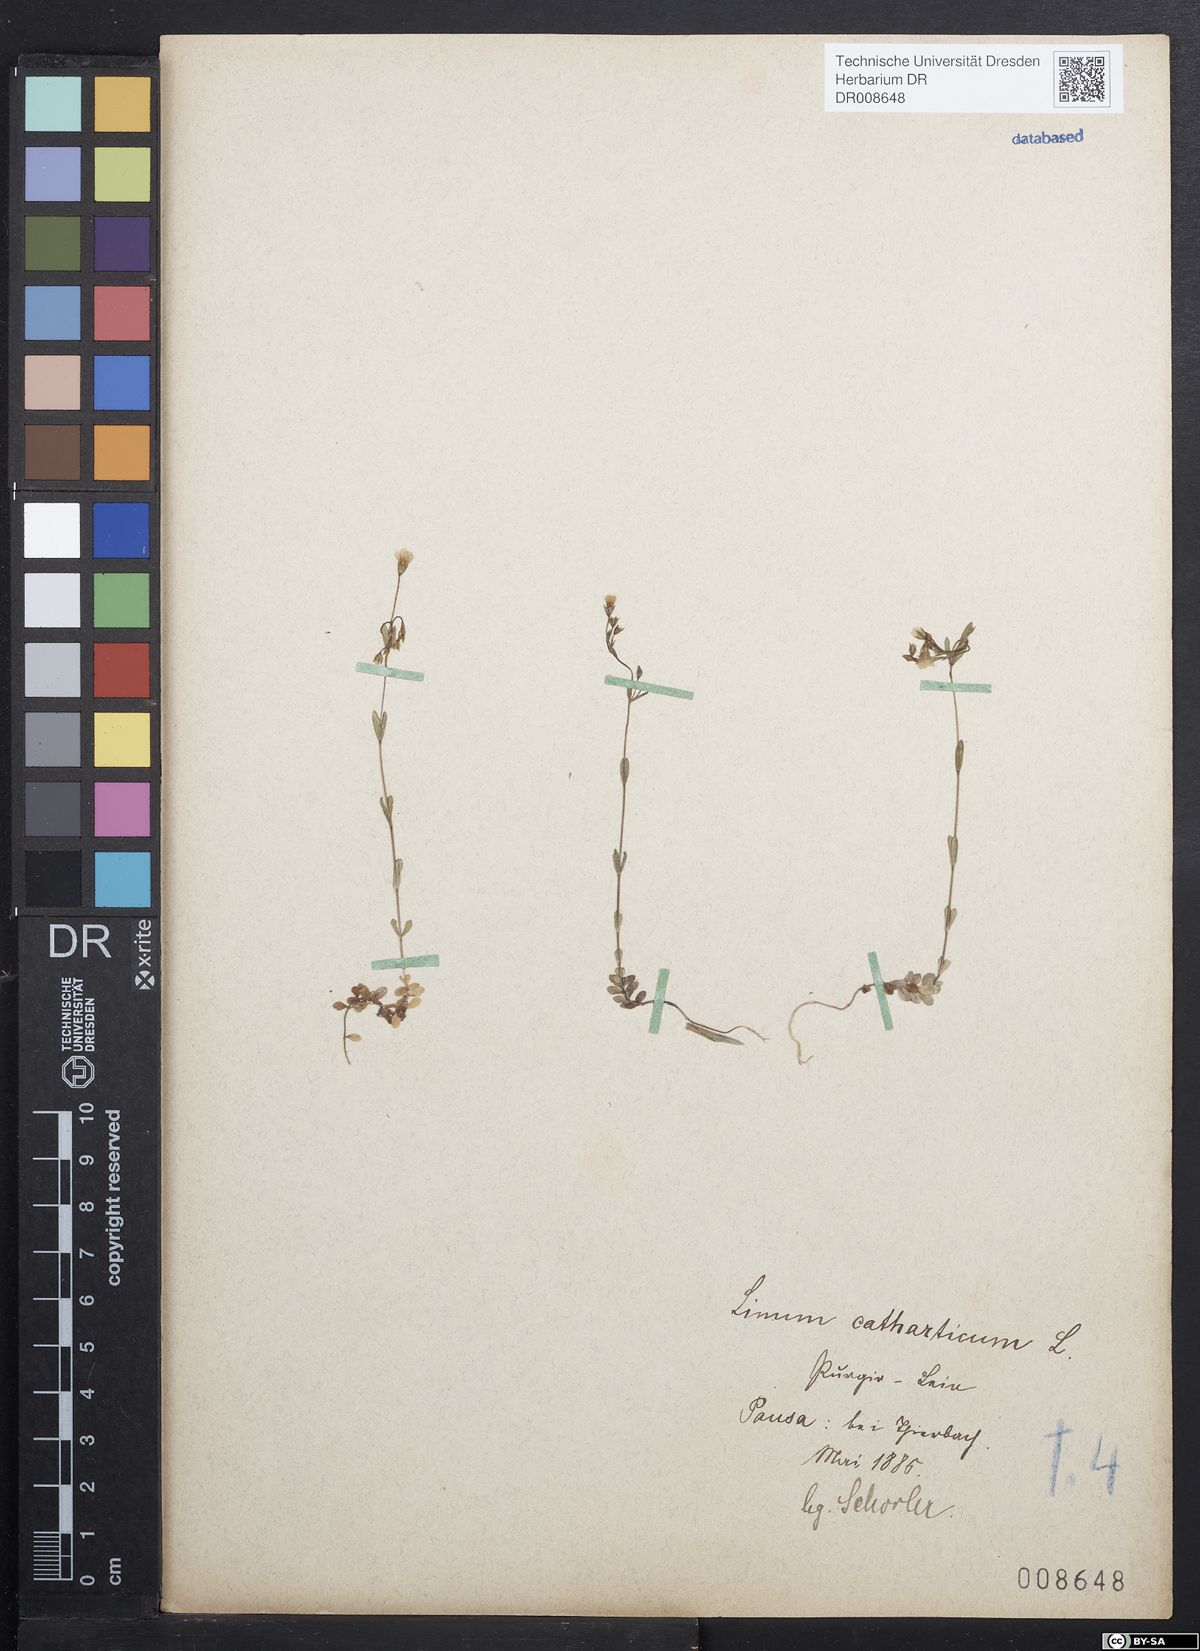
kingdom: Plantae
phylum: Tracheophyta
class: Magnoliopsida
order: Malpighiales
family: Linaceae
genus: Linum
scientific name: Linum catharticum
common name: Fairy flax
